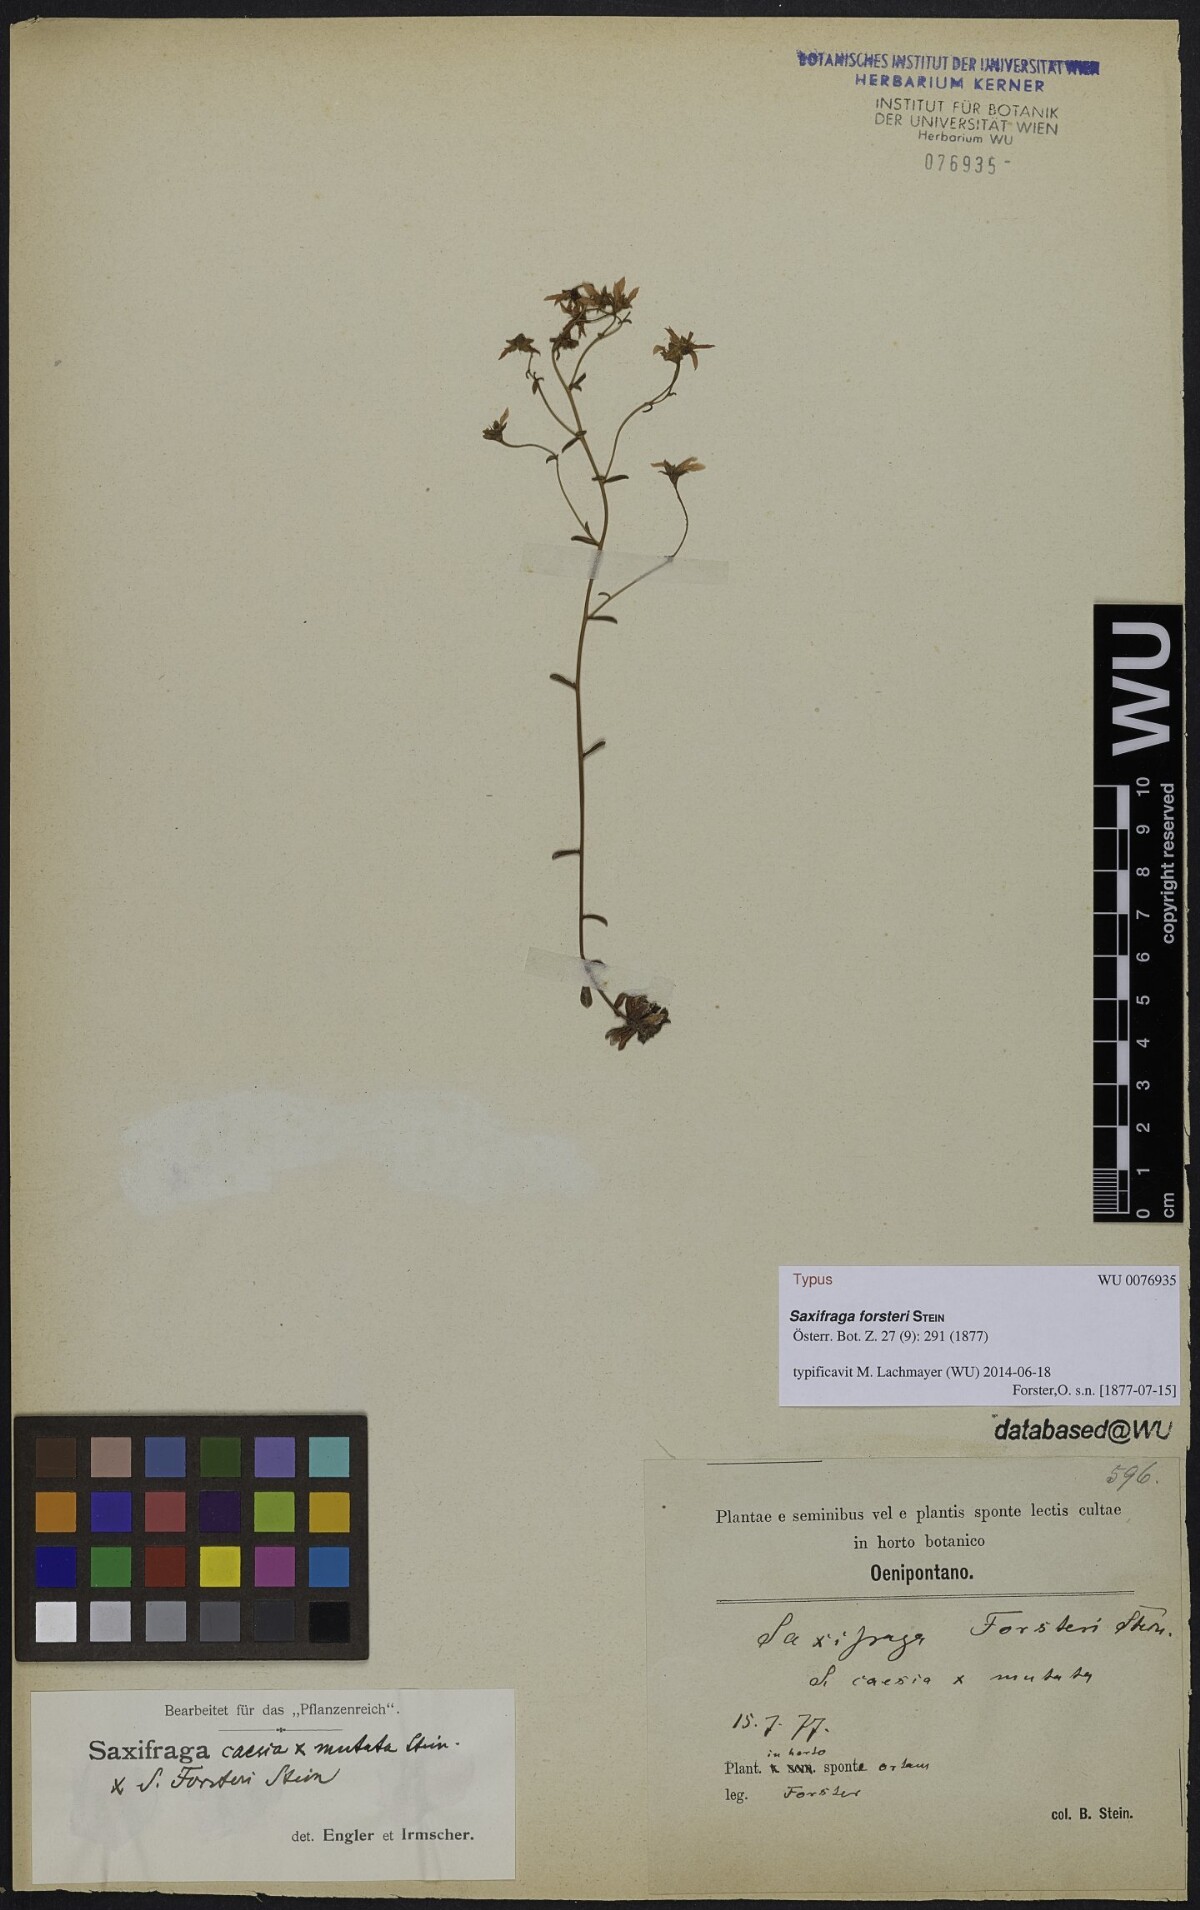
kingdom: Plantae
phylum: Tracheophyta
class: Magnoliopsida
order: Saxifragales
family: Saxifragaceae
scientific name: Saxifragaceae
